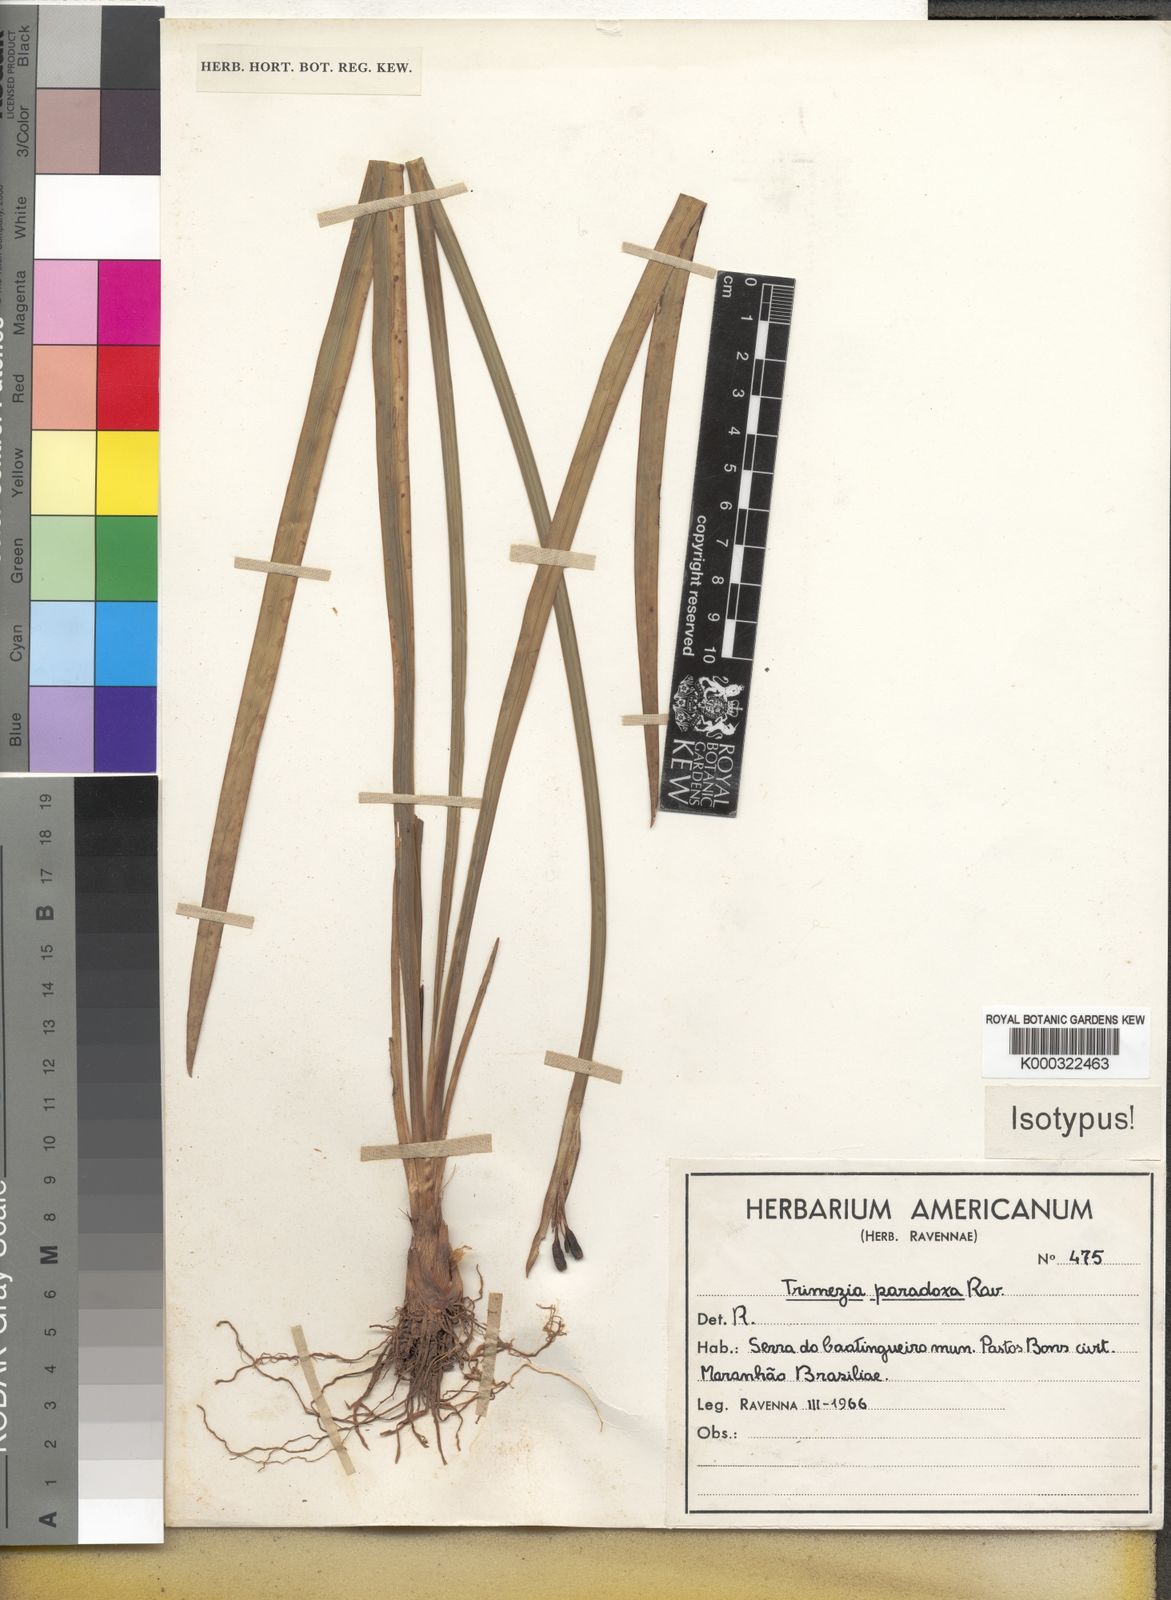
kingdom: Plantae
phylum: Tracheophyta
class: Liliopsida
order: Asparagales
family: Iridaceae
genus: Trimezia
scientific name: Trimezia paradoxa
